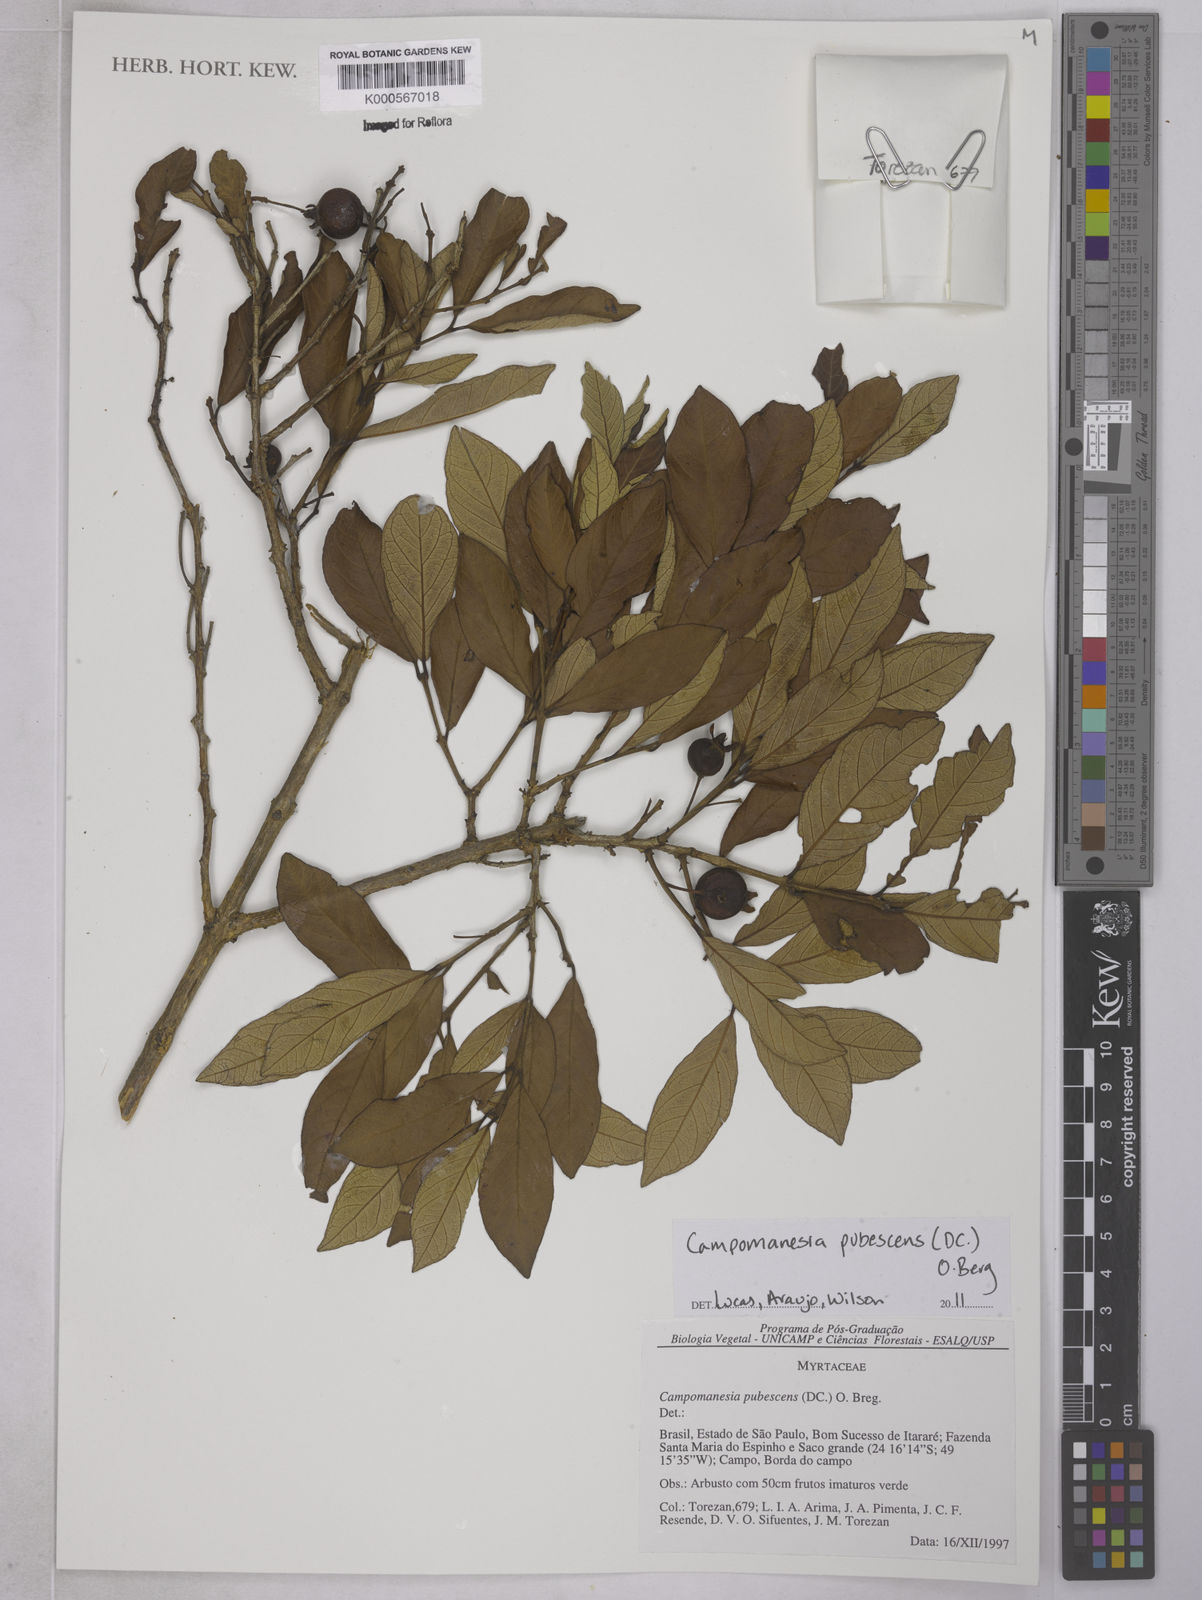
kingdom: Plantae
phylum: Tracheophyta
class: Magnoliopsida
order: Myrtales
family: Myrtaceae
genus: Campomanesia
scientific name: Campomanesia pubescens
